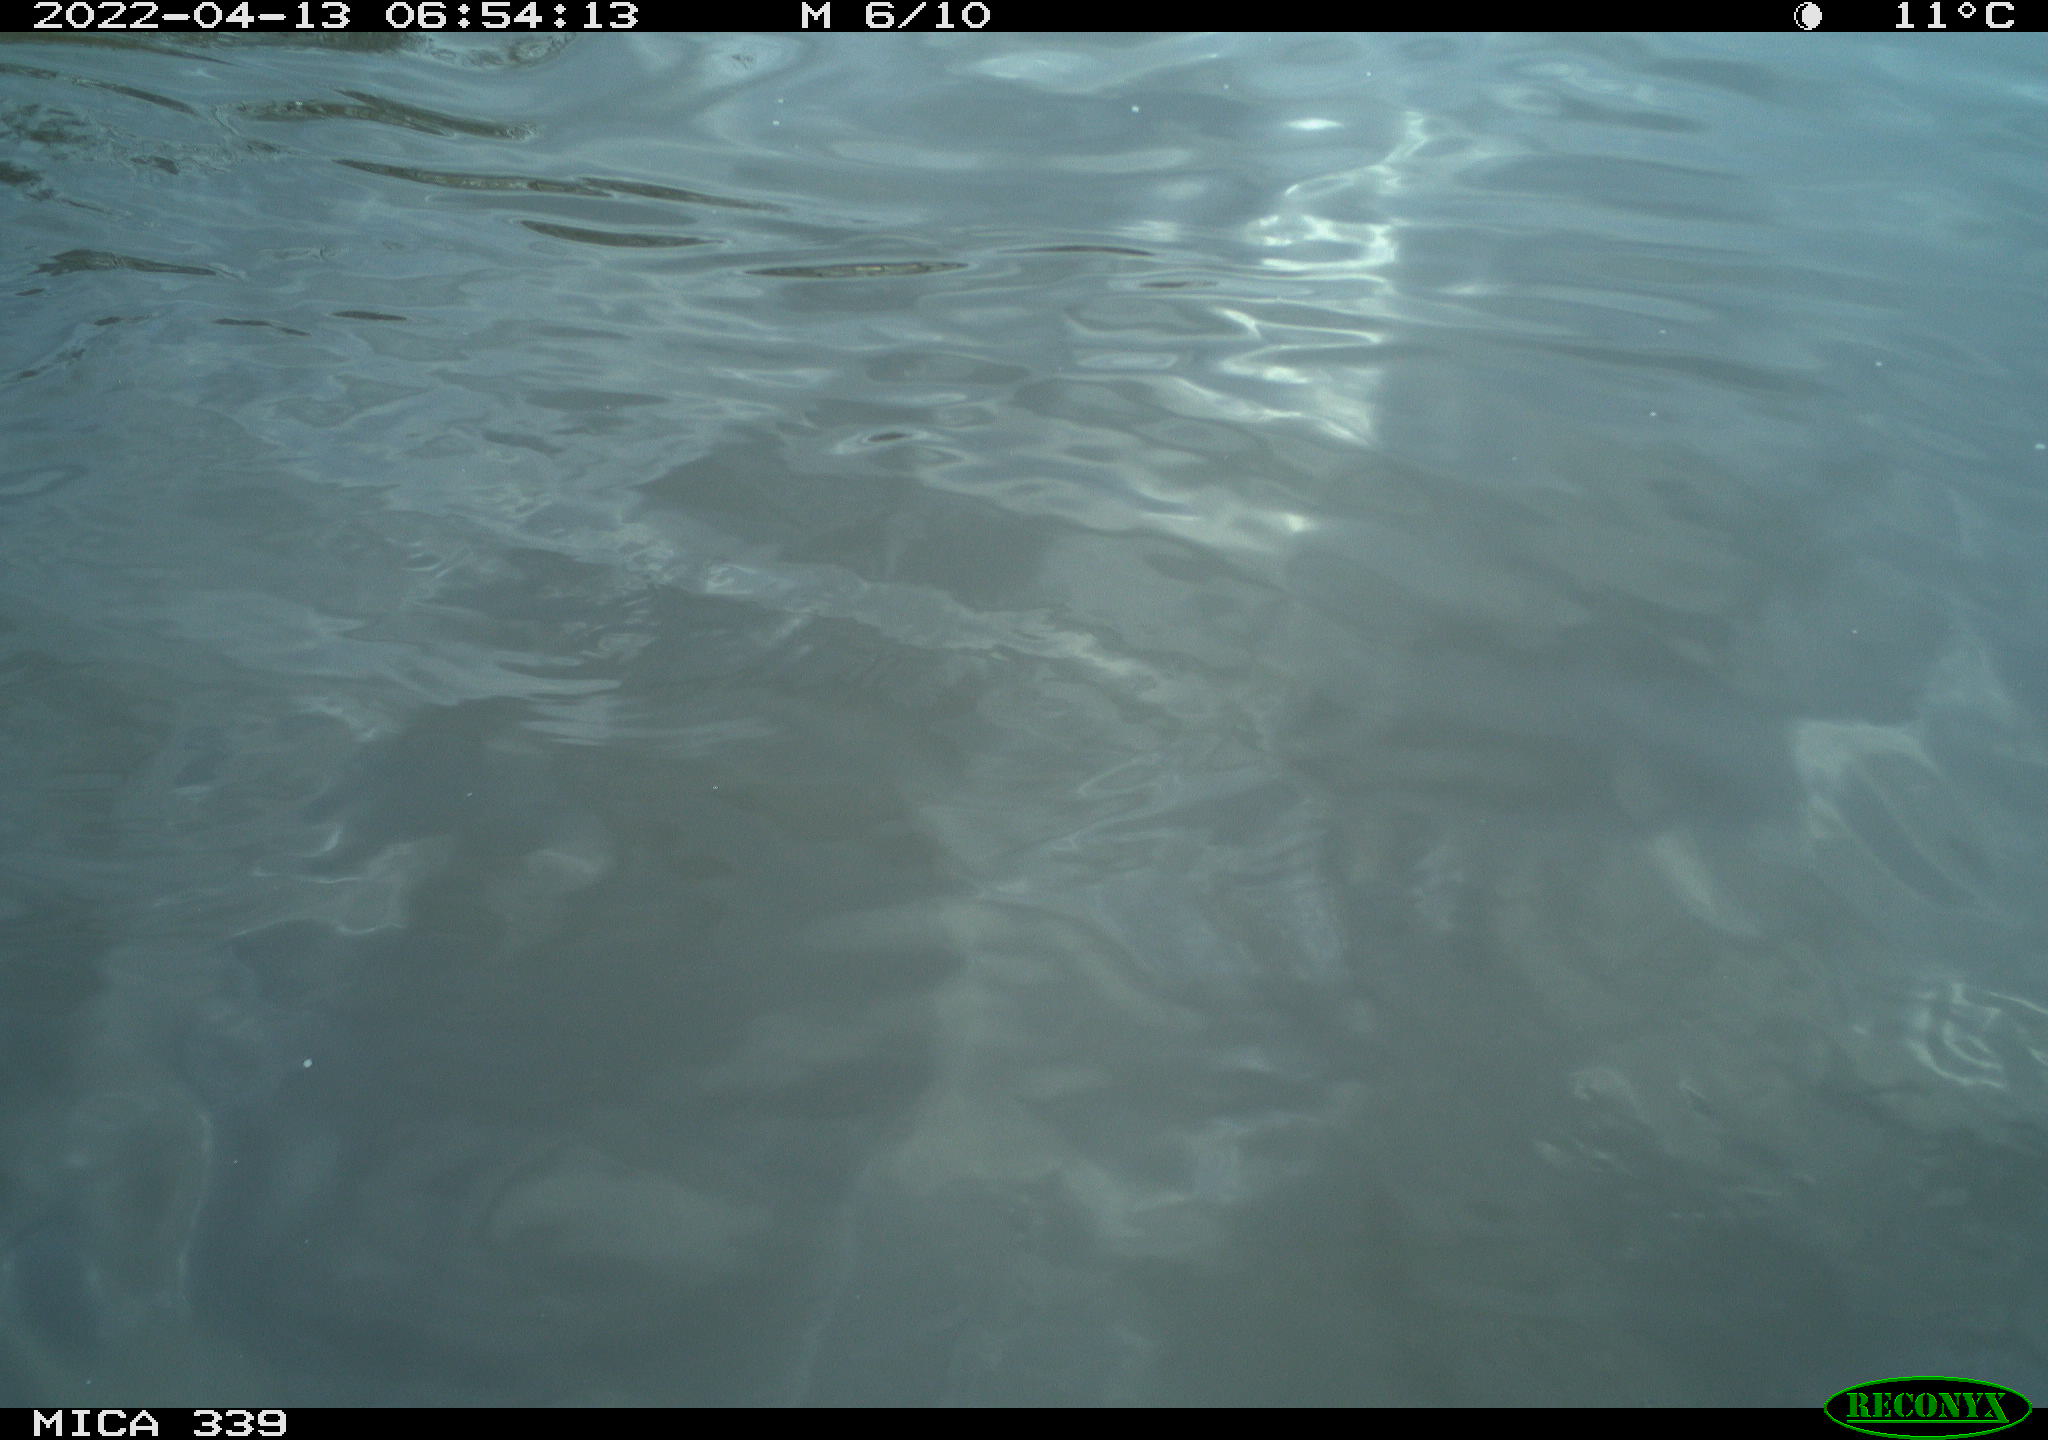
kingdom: Animalia
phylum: Chordata
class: Aves
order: Anseriformes
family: Anatidae
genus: Anas
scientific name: Anas platyrhynchos
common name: Mallard
